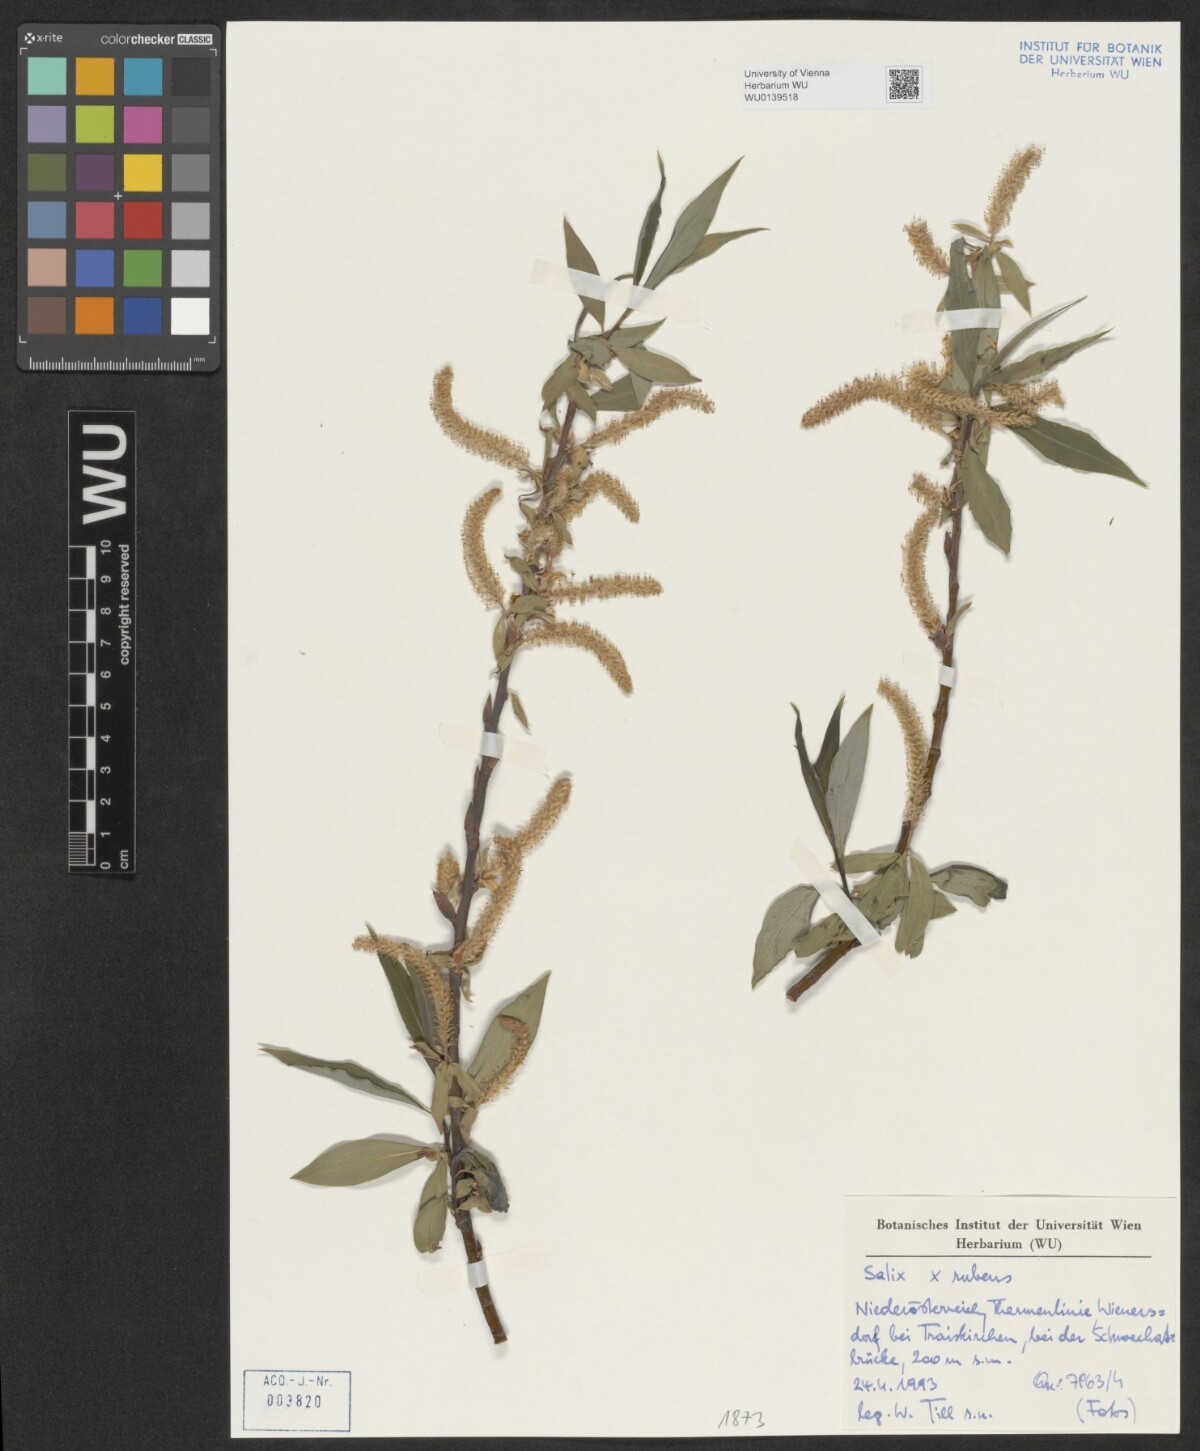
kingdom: Plantae
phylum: Tracheophyta
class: Magnoliopsida
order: Malpighiales
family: Salicaceae
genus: Salix
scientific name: Salix rubens
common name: Hybrid crack willow
